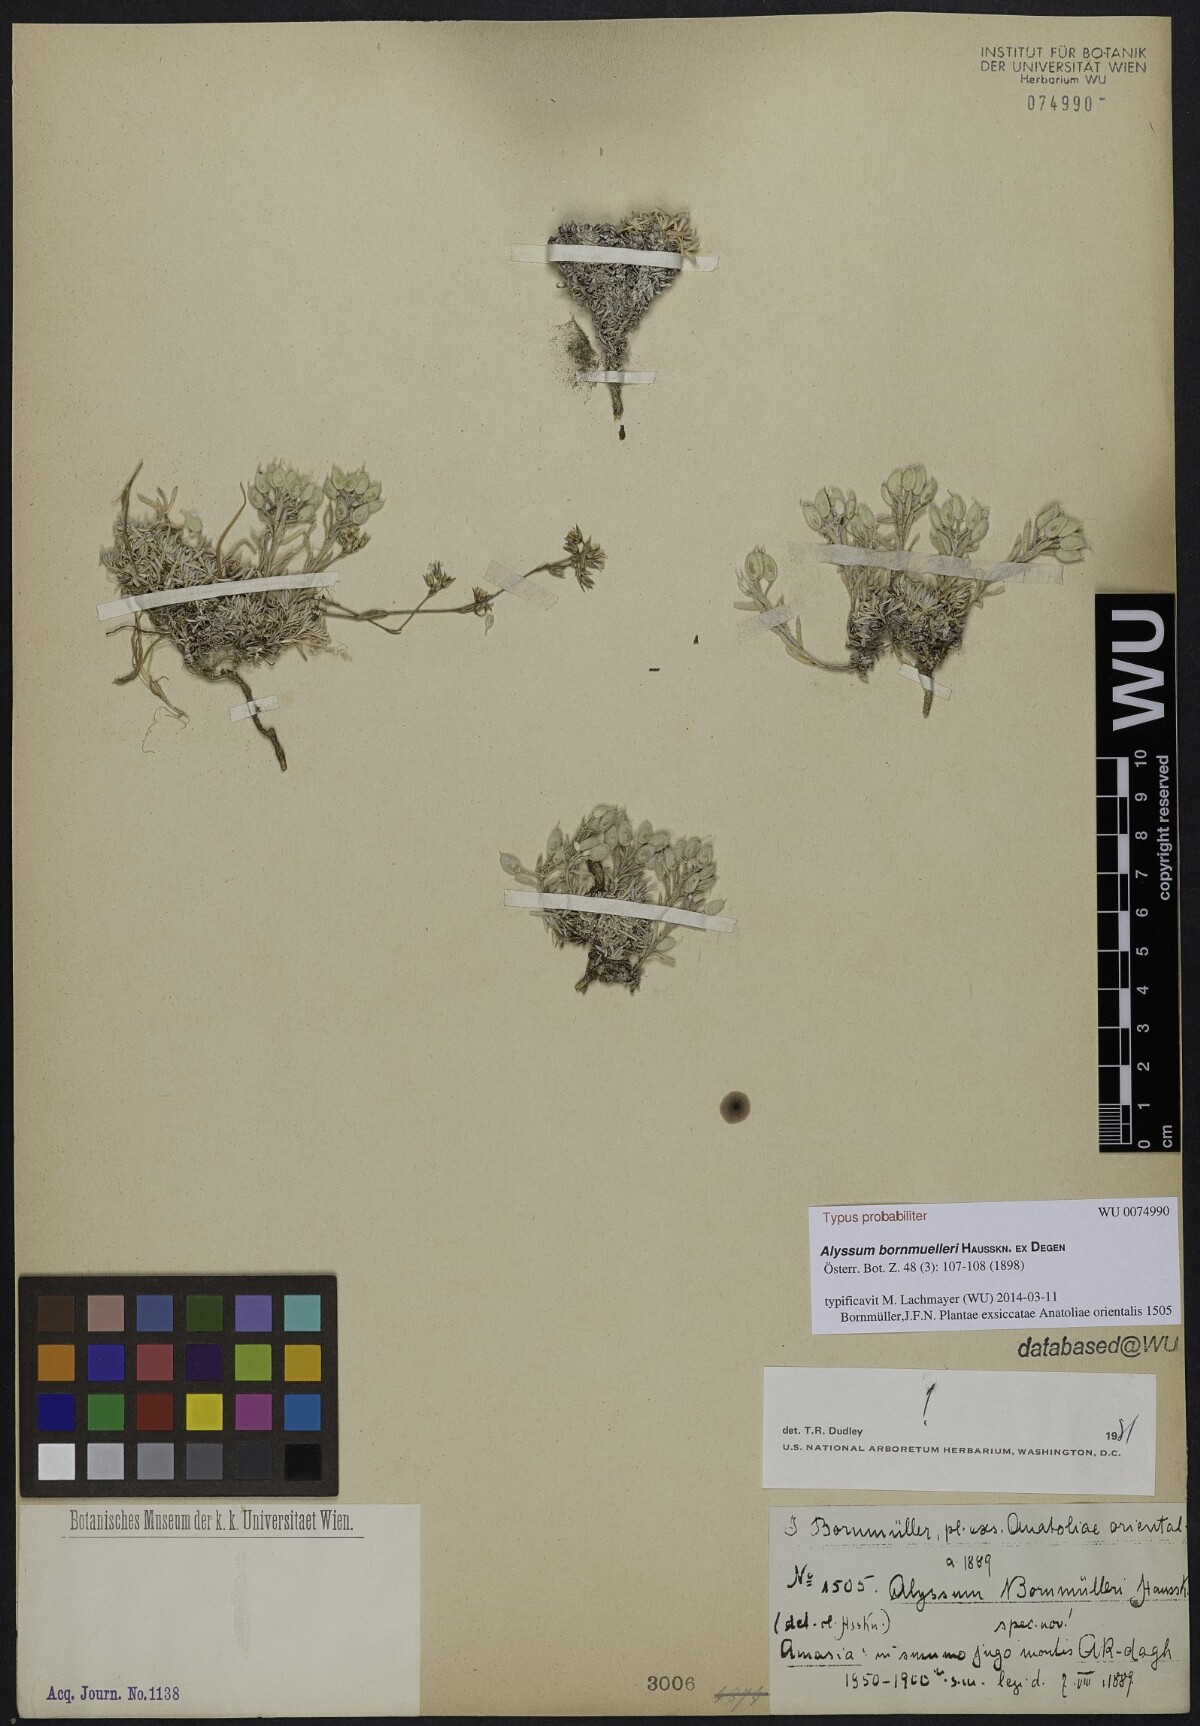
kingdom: Plantae
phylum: Tracheophyta
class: Magnoliopsida
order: Brassicales
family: Brassicaceae
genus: Alyssum
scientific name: Alyssum bornmuelleri
